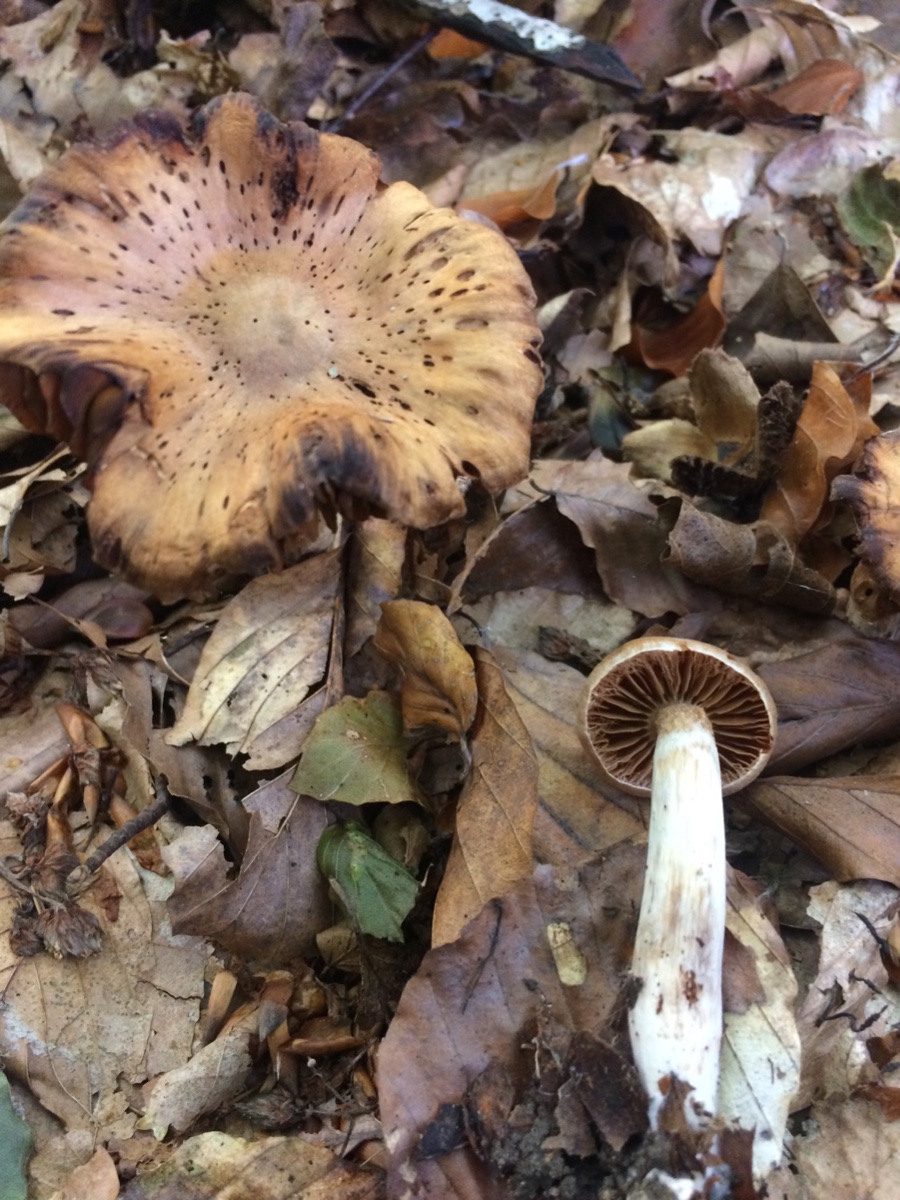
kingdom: Fungi
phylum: Basidiomycota
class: Agaricomycetes
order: Agaricales
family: Cortinariaceae
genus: Cortinarius
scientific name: Cortinarius
